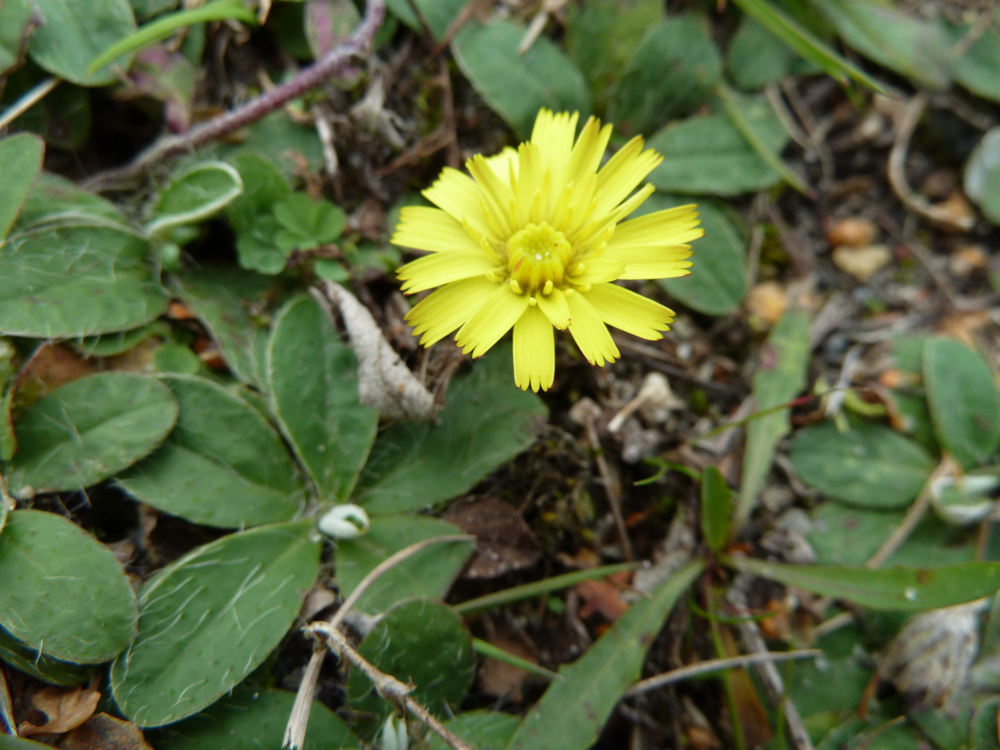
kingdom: Plantae
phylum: Tracheophyta
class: Magnoliopsida
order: Asterales
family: Asteraceae
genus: Pilosella
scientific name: Pilosella officinarum
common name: Mouse-ear hawkweed
